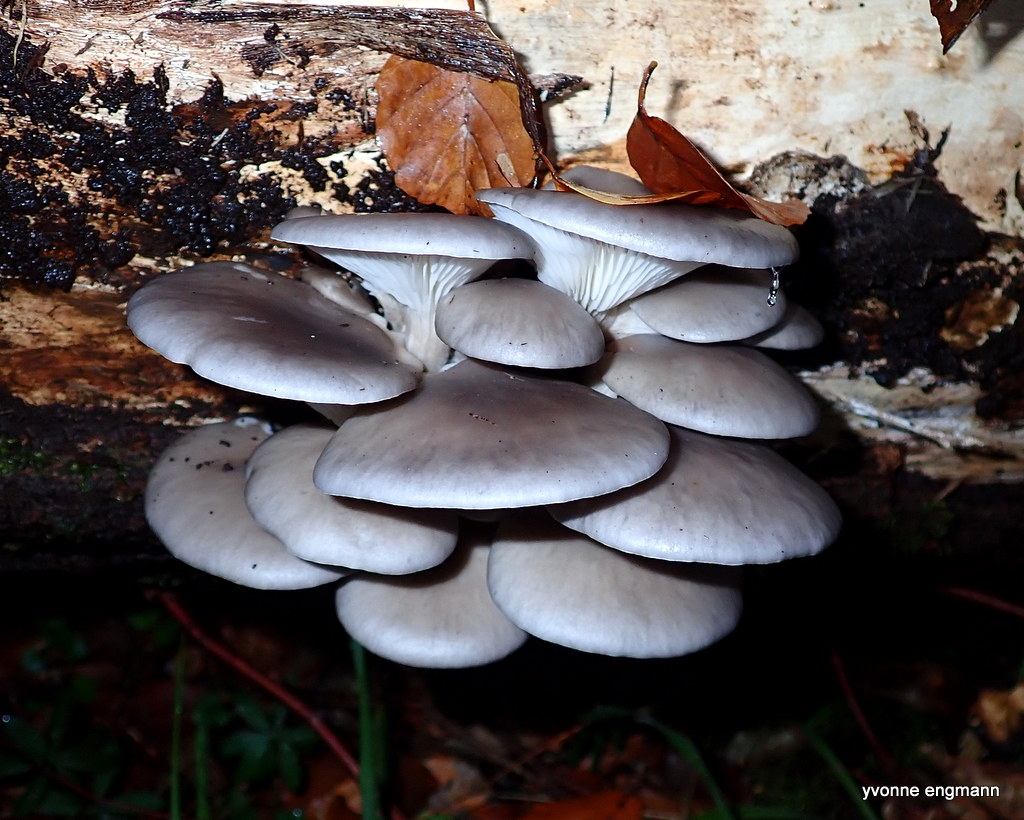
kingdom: Fungi
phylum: Basidiomycota
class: Agaricomycetes
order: Agaricales
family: Pleurotaceae
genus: Pleurotus
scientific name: Pleurotus ostreatus
